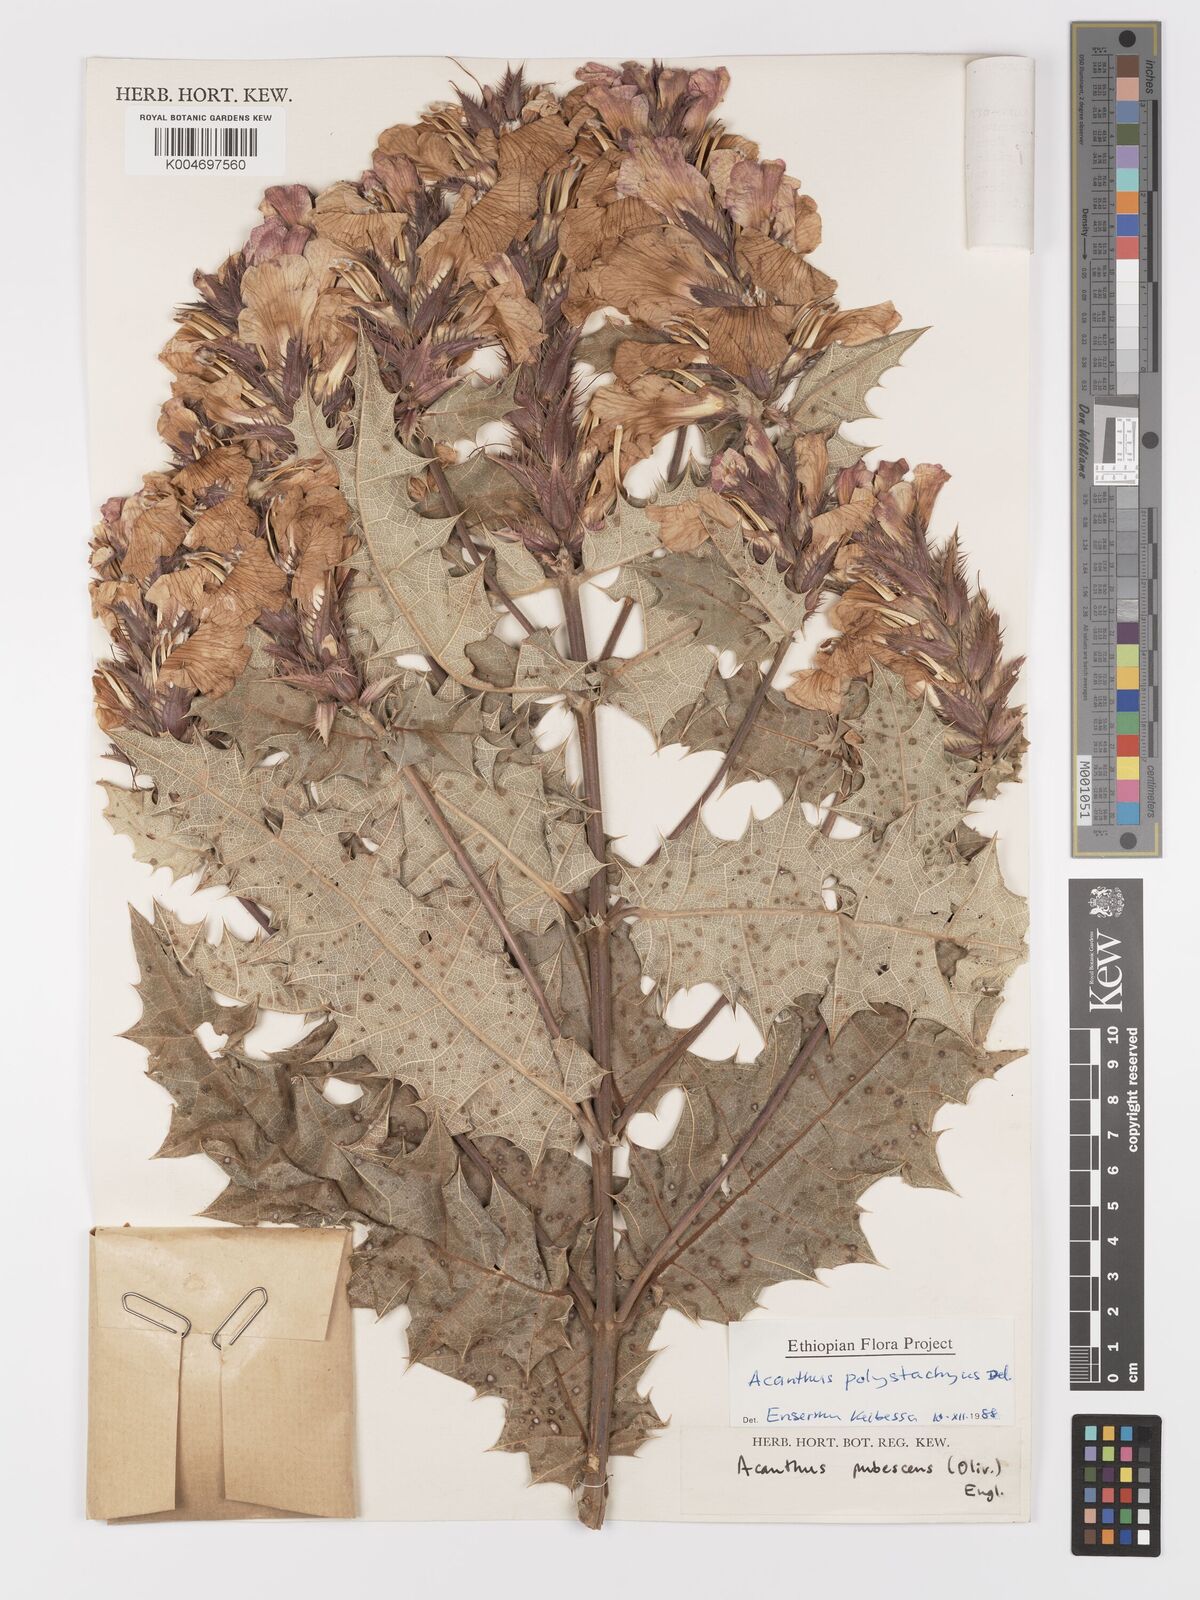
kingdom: Plantae
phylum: Tracheophyta
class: Magnoliopsida
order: Lamiales
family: Acanthaceae
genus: Acanthus
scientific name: Acanthus polystachyus
